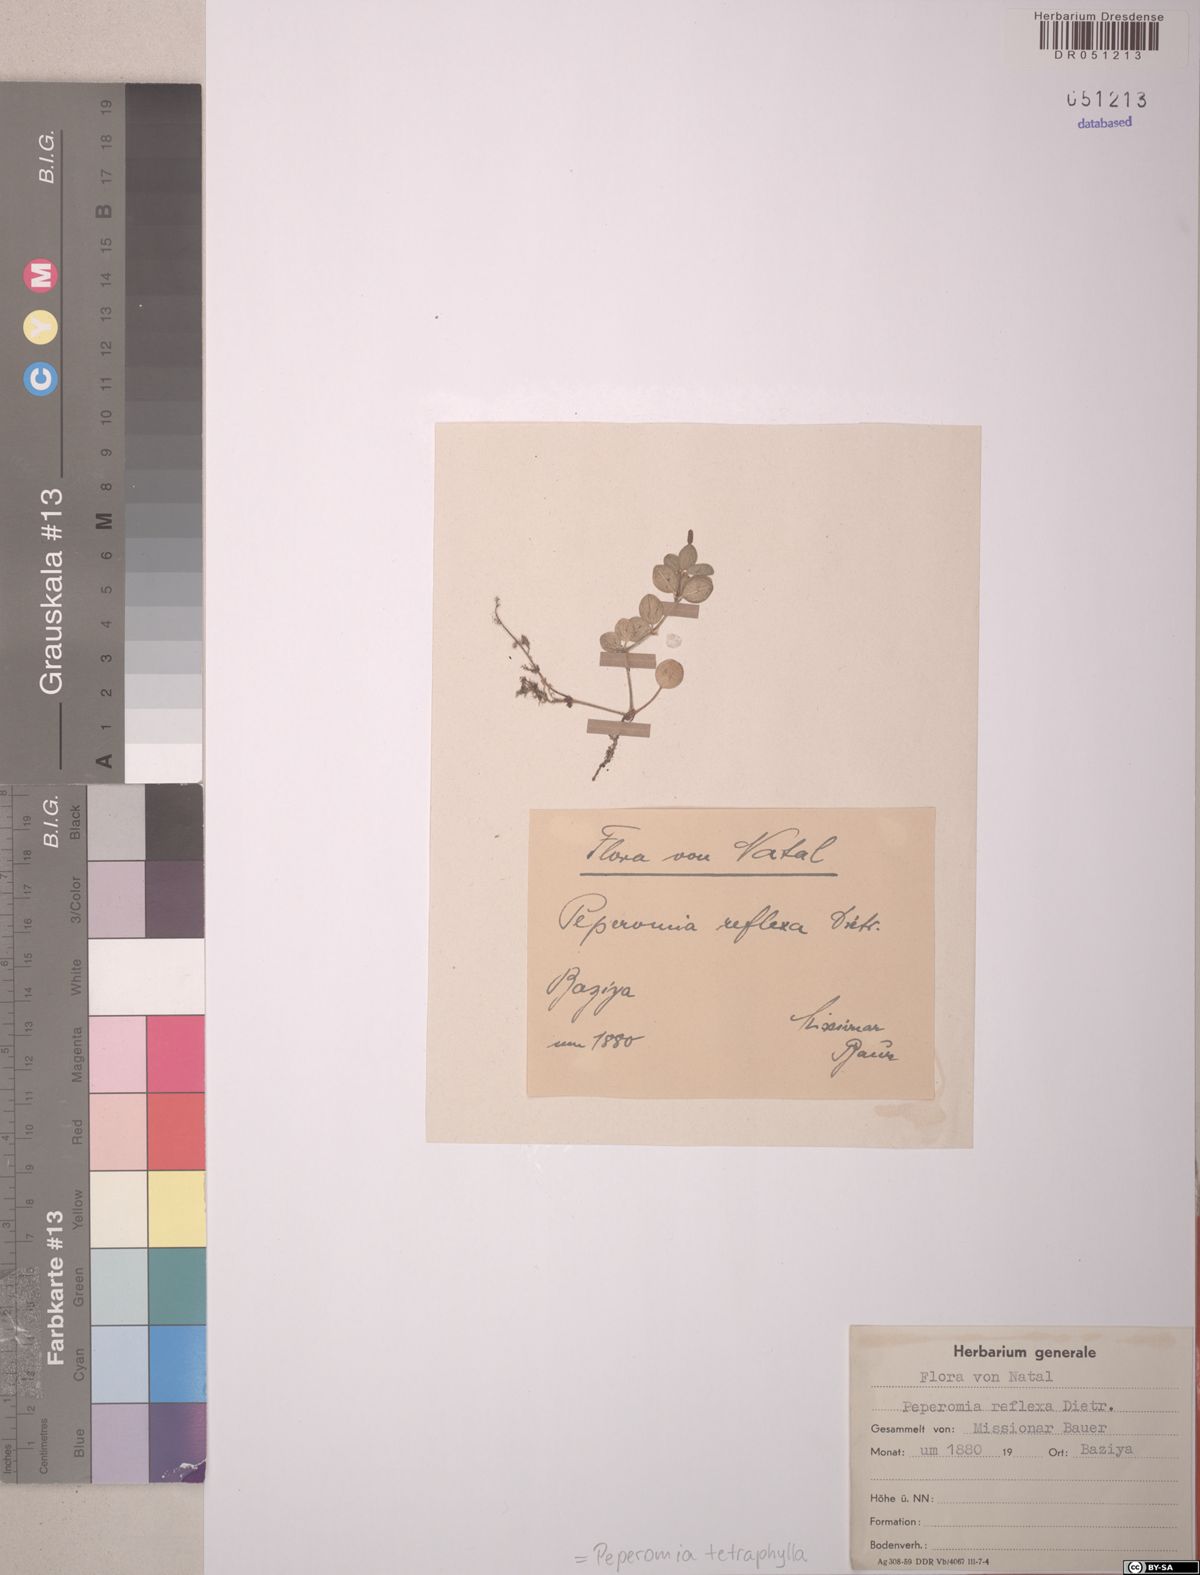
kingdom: Plantae
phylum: Tracheophyta
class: Magnoliopsida
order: Piperales
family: Piperaceae
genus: Peperomia
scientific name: Peperomia tetraphylla
